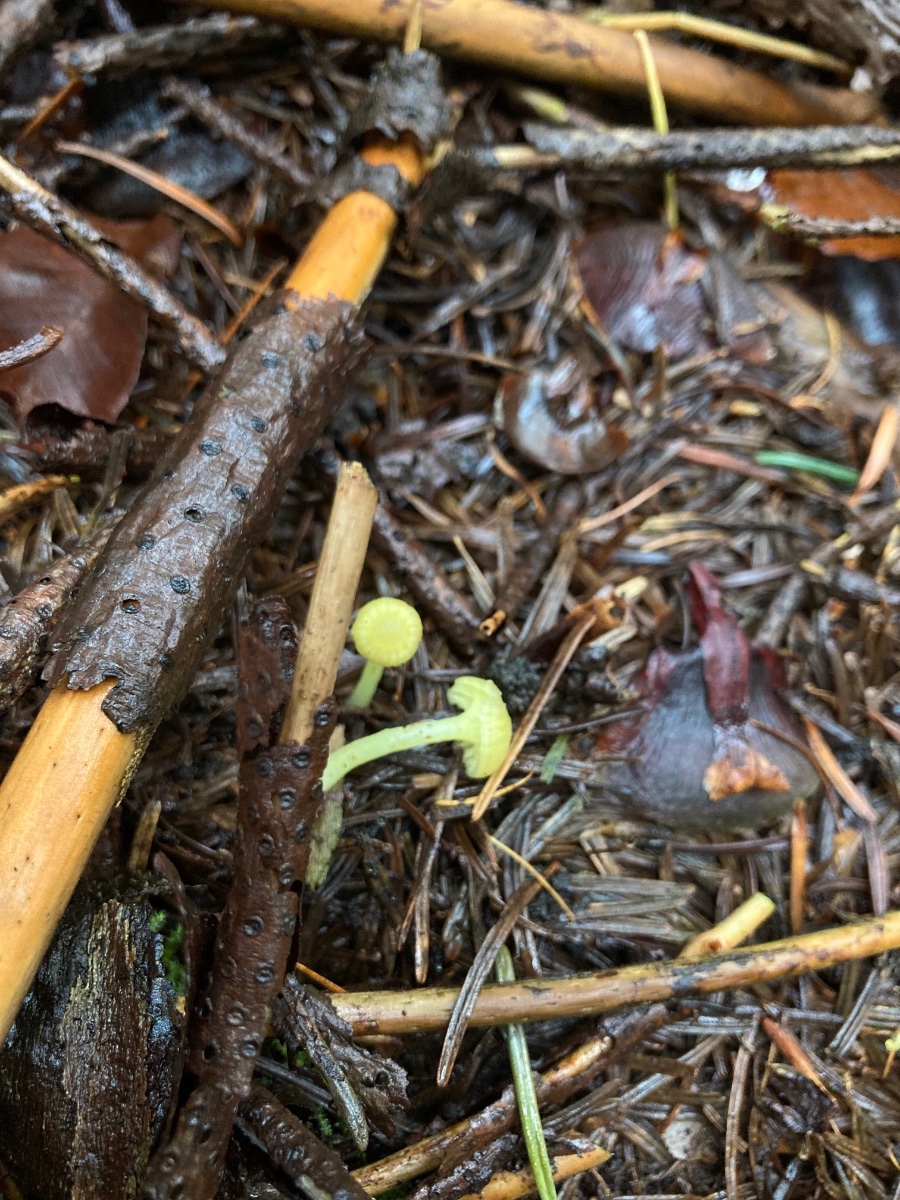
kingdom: Fungi
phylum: Basidiomycota
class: Agaricomycetes
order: Agaricales
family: Hygrophoraceae
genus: Chrysomphalina
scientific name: Chrysomphalina grossula
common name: stød-gyldenblad
